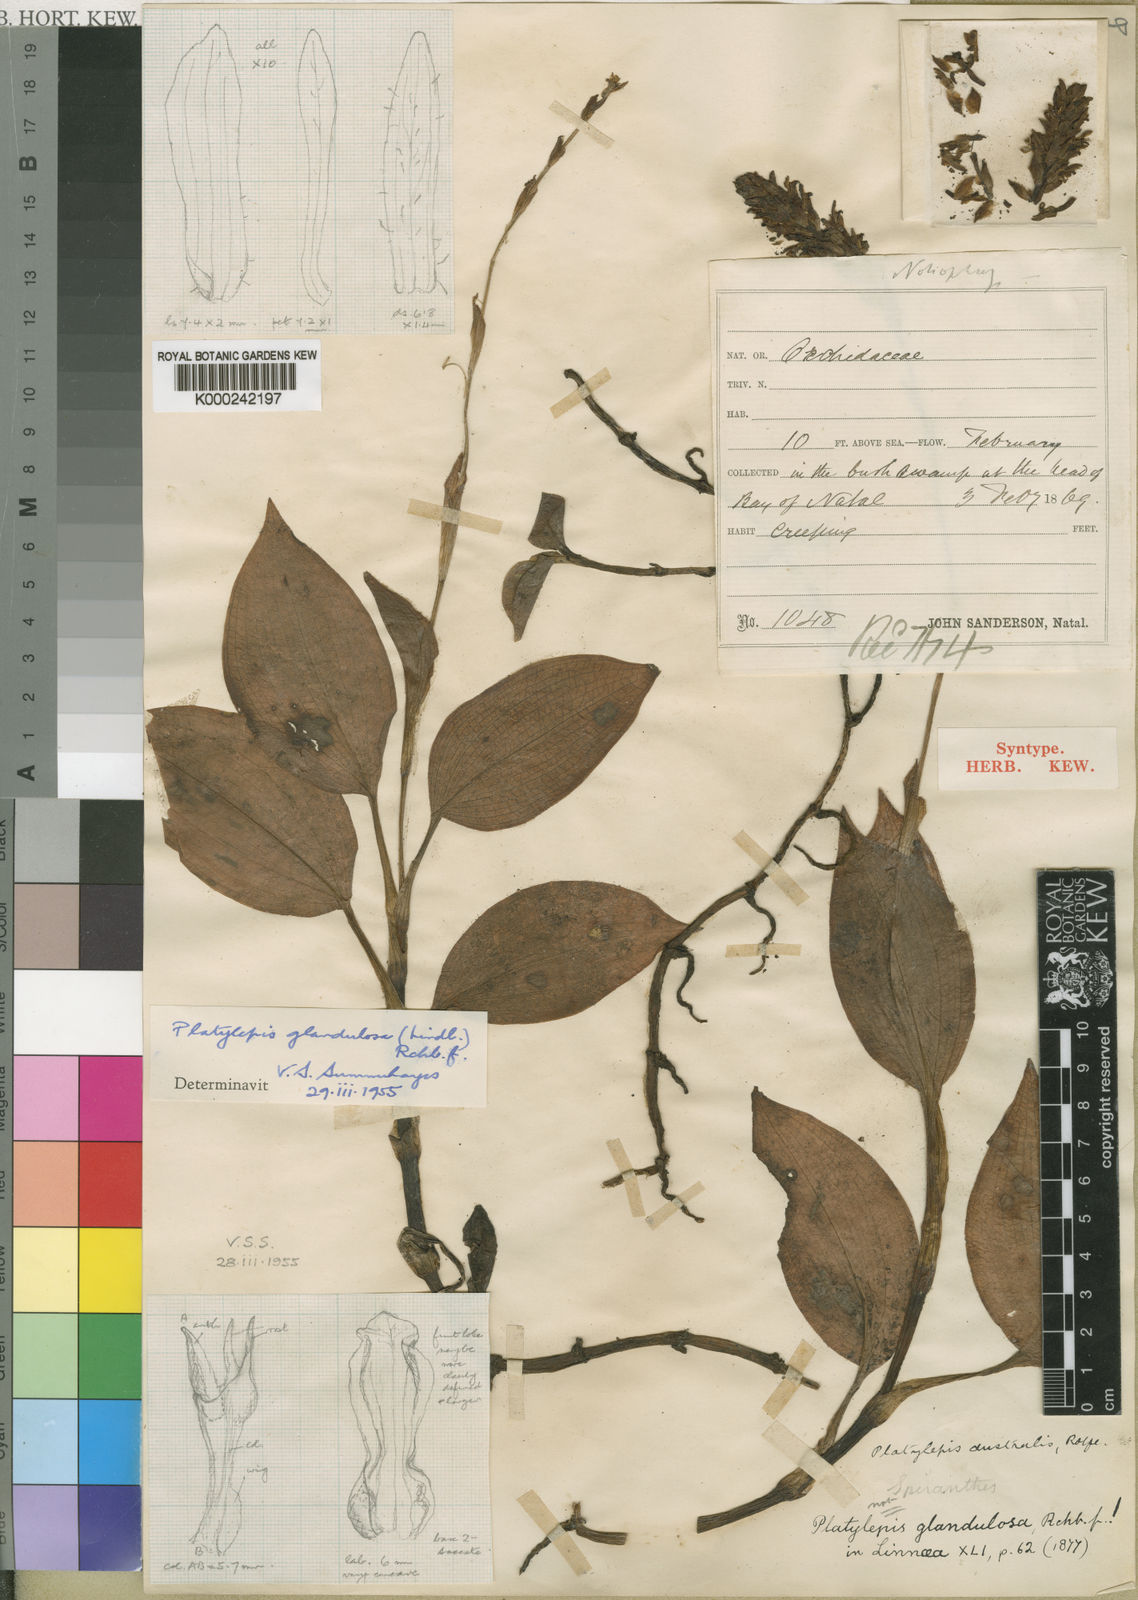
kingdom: Plantae
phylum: Tracheophyta
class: Liliopsida
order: Asparagales
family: Orchidaceae
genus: Platylepis
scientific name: Platylepis glandulosa
